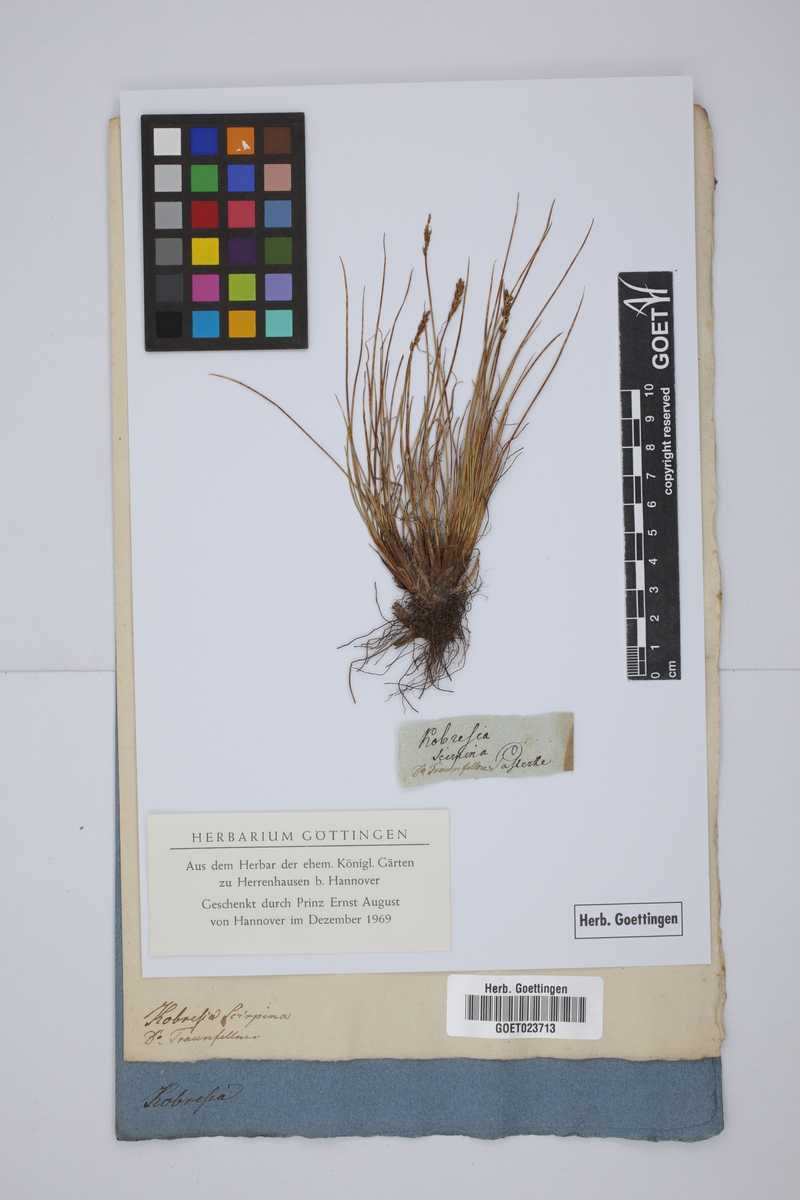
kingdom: Plantae
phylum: Tracheophyta
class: Liliopsida
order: Poales
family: Cyperaceae
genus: Carex
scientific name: Carex myosuroides
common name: Bellard's bog sedge
